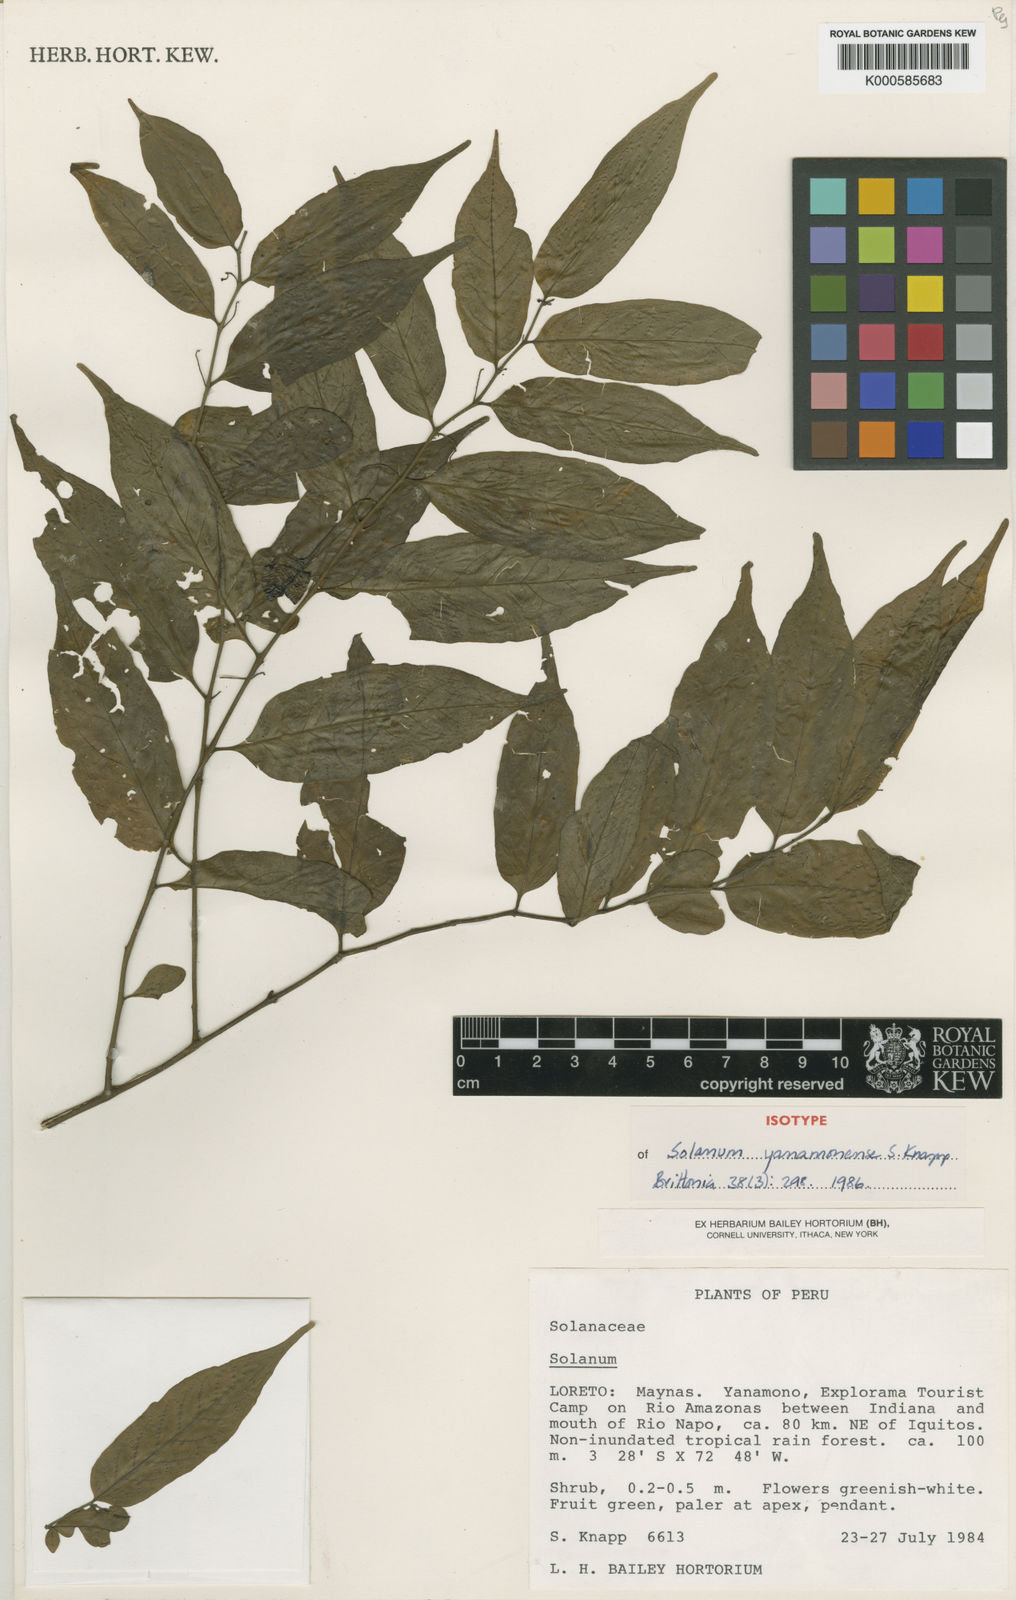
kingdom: Plantae
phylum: Tracheophyta
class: Magnoliopsida
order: Solanales
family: Solanaceae
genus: Solanum
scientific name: Solanum yanamonense
